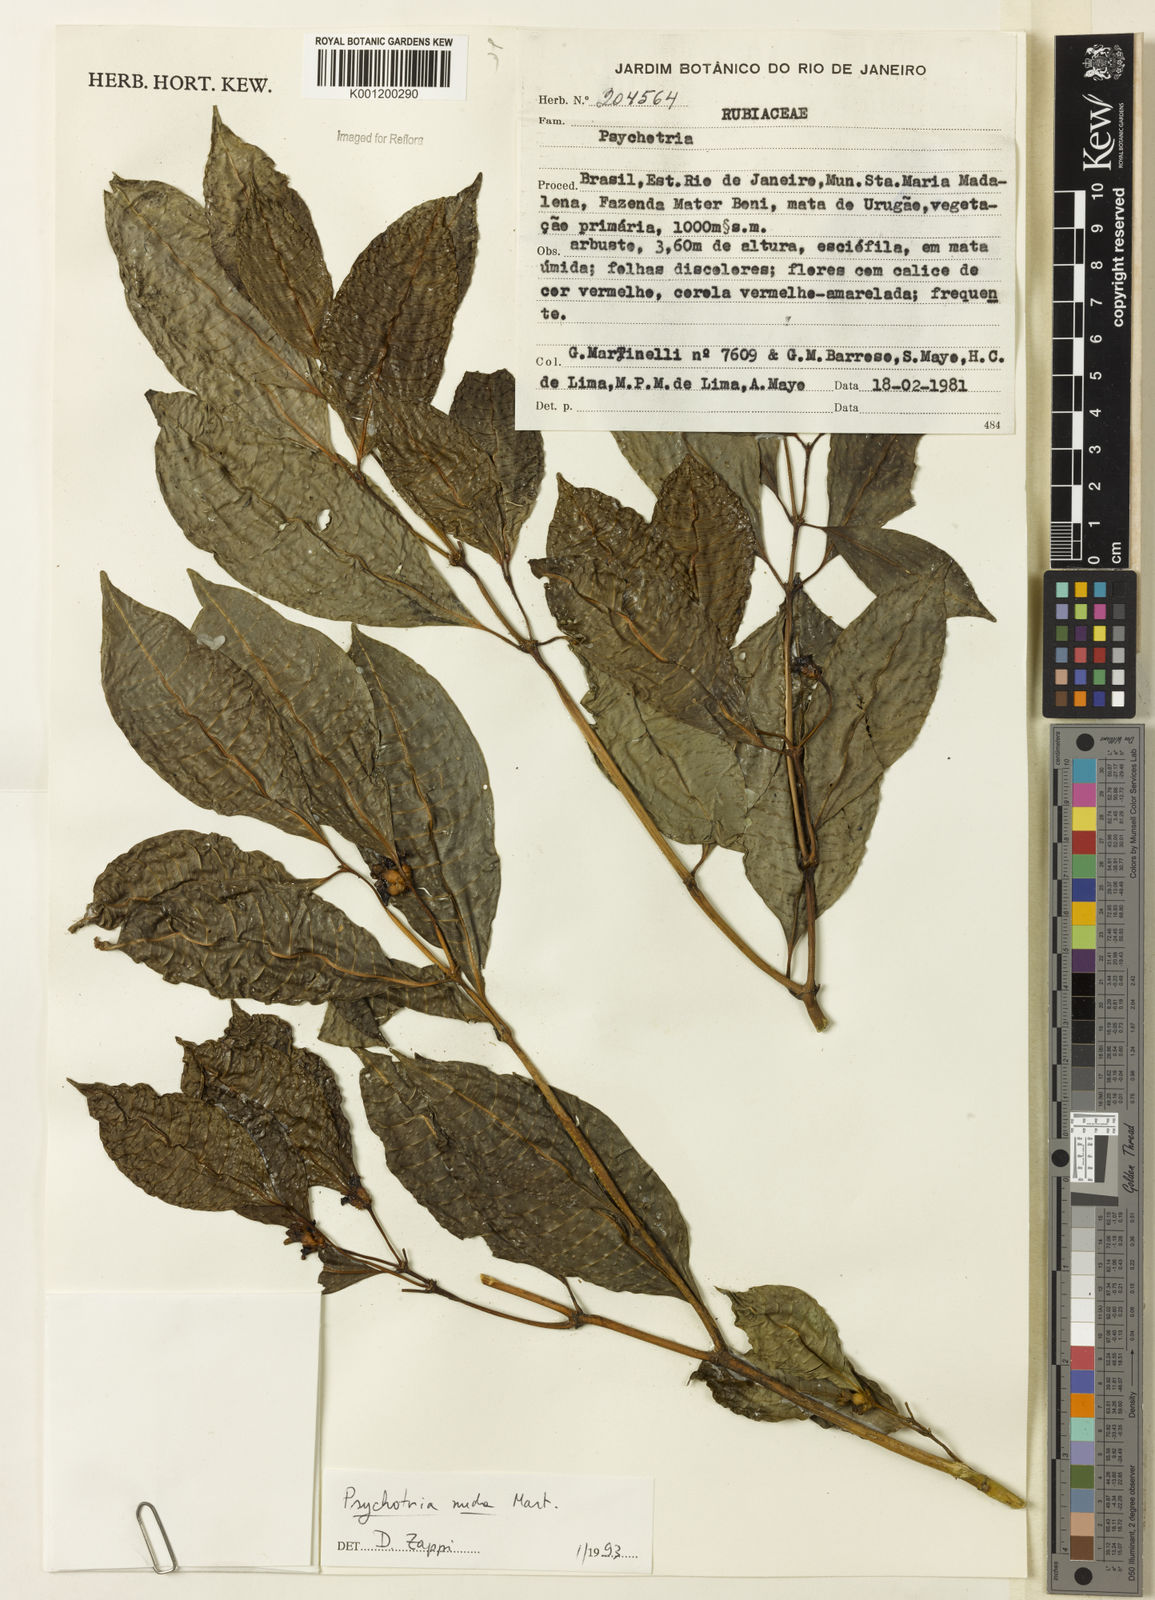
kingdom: Plantae
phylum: Tracheophyta
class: Magnoliopsida
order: Gentianales
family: Rubiaceae
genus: Psychotria
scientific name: Psychotria nuda
